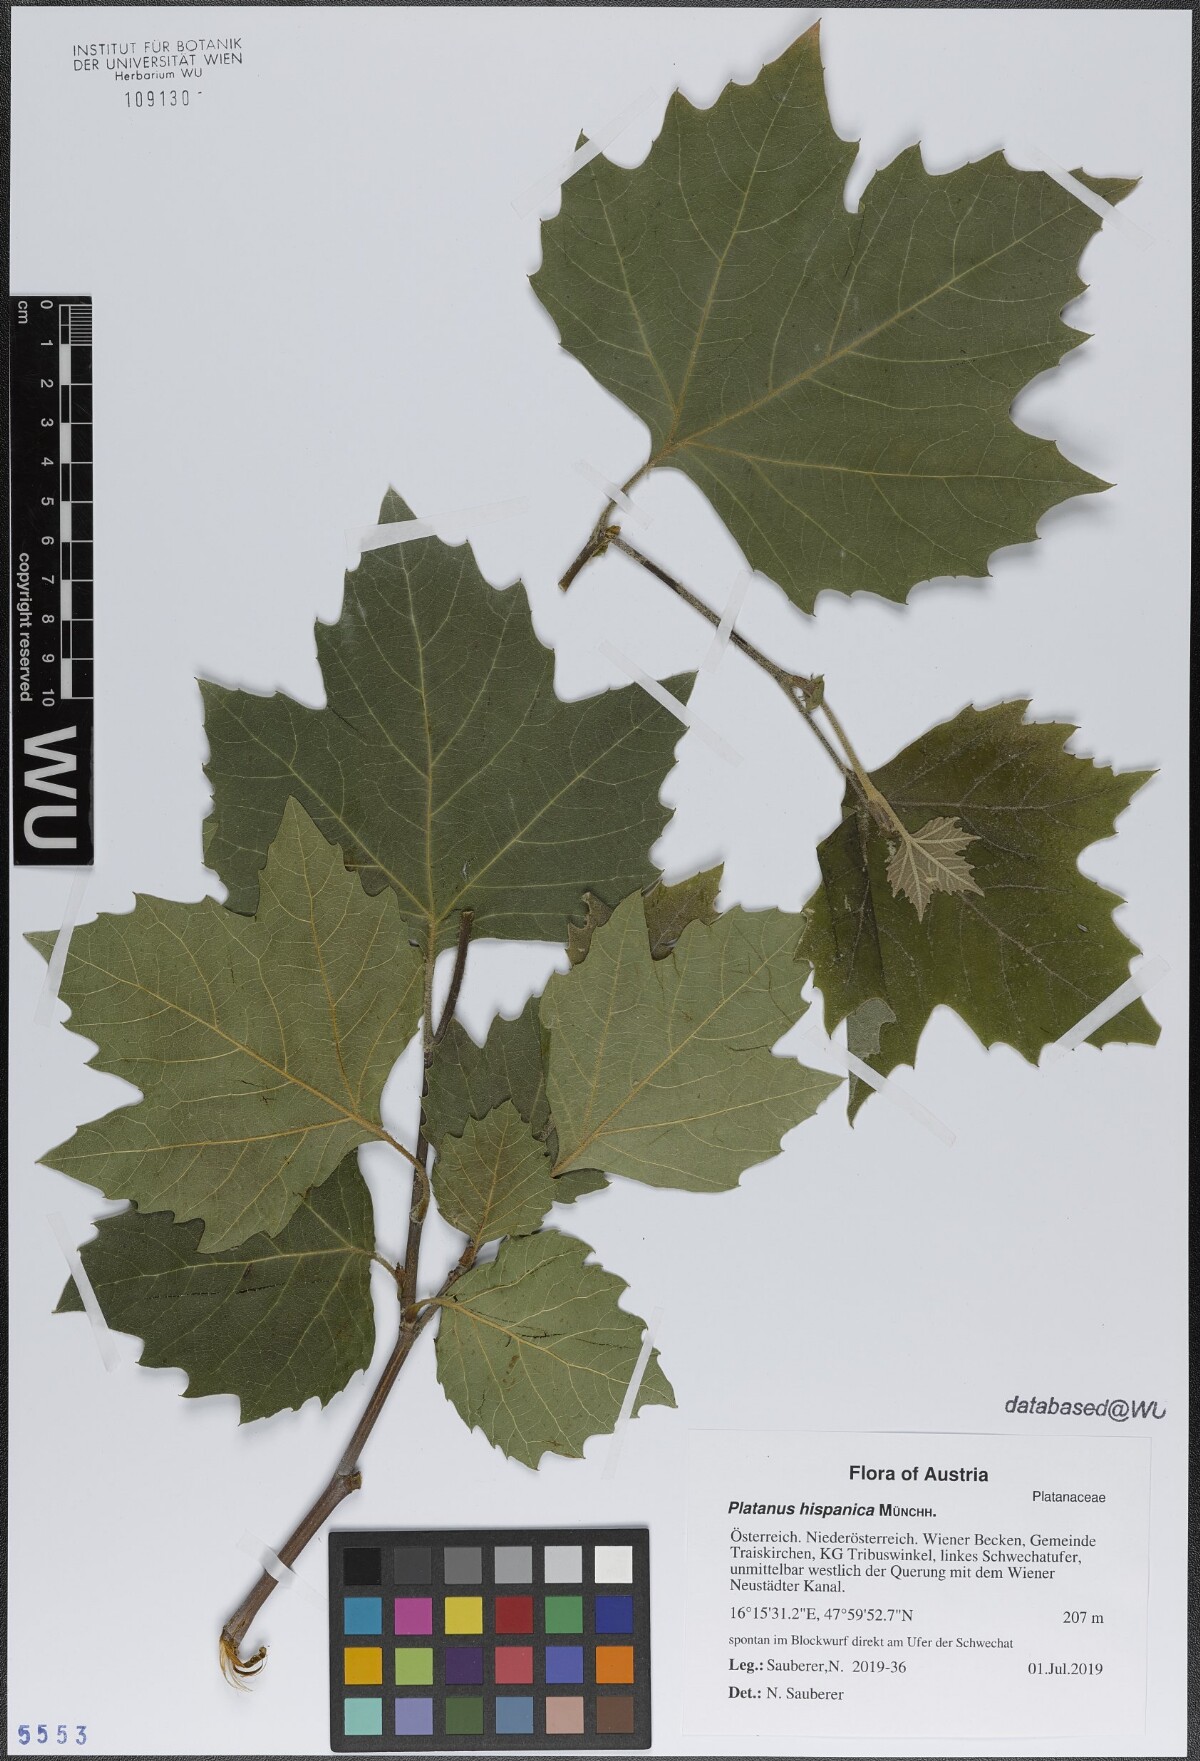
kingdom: Plantae
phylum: Tracheophyta
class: Magnoliopsida
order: Proteales
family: Platanaceae
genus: Platanus
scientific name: Platanus hispanica
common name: London plane
